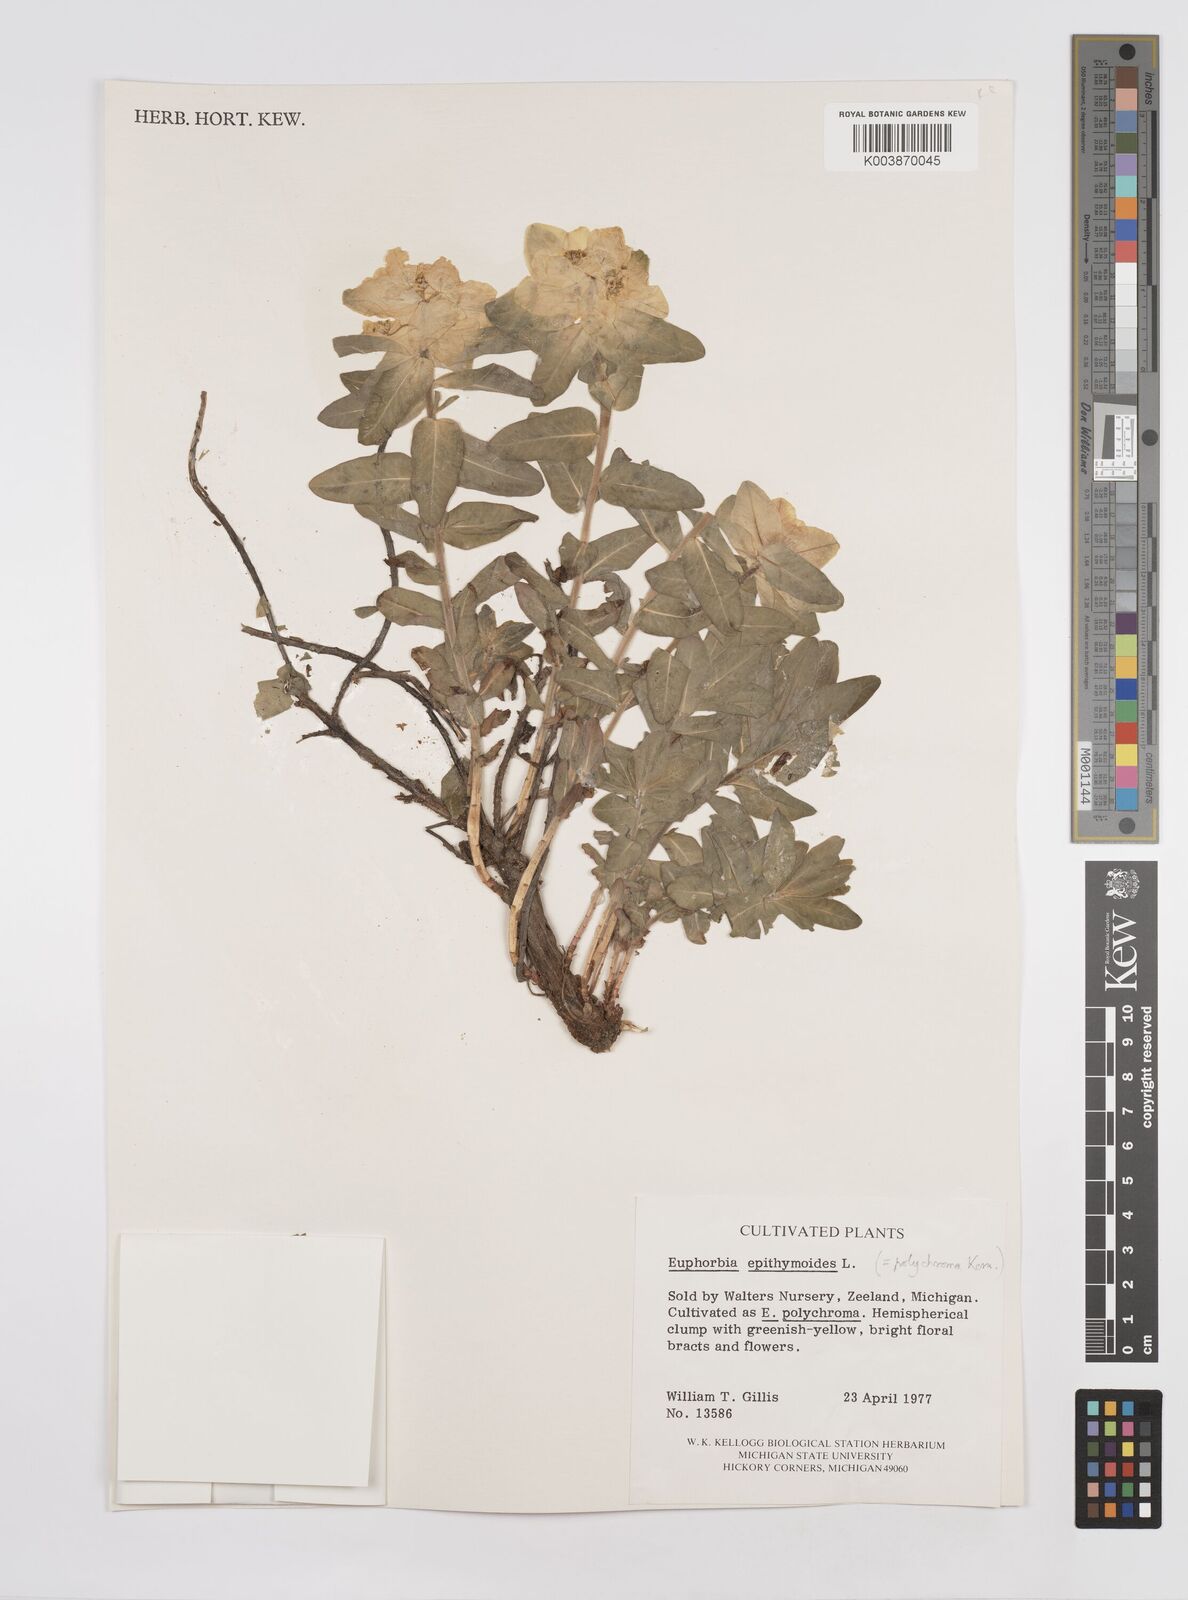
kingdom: Plantae
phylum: Tracheophyta
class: Magnoliopsida
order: Malpighiales
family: Euphorbiaceae
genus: Euphorbia
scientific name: Euphorbia epithymoides
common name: Cushion spurge
